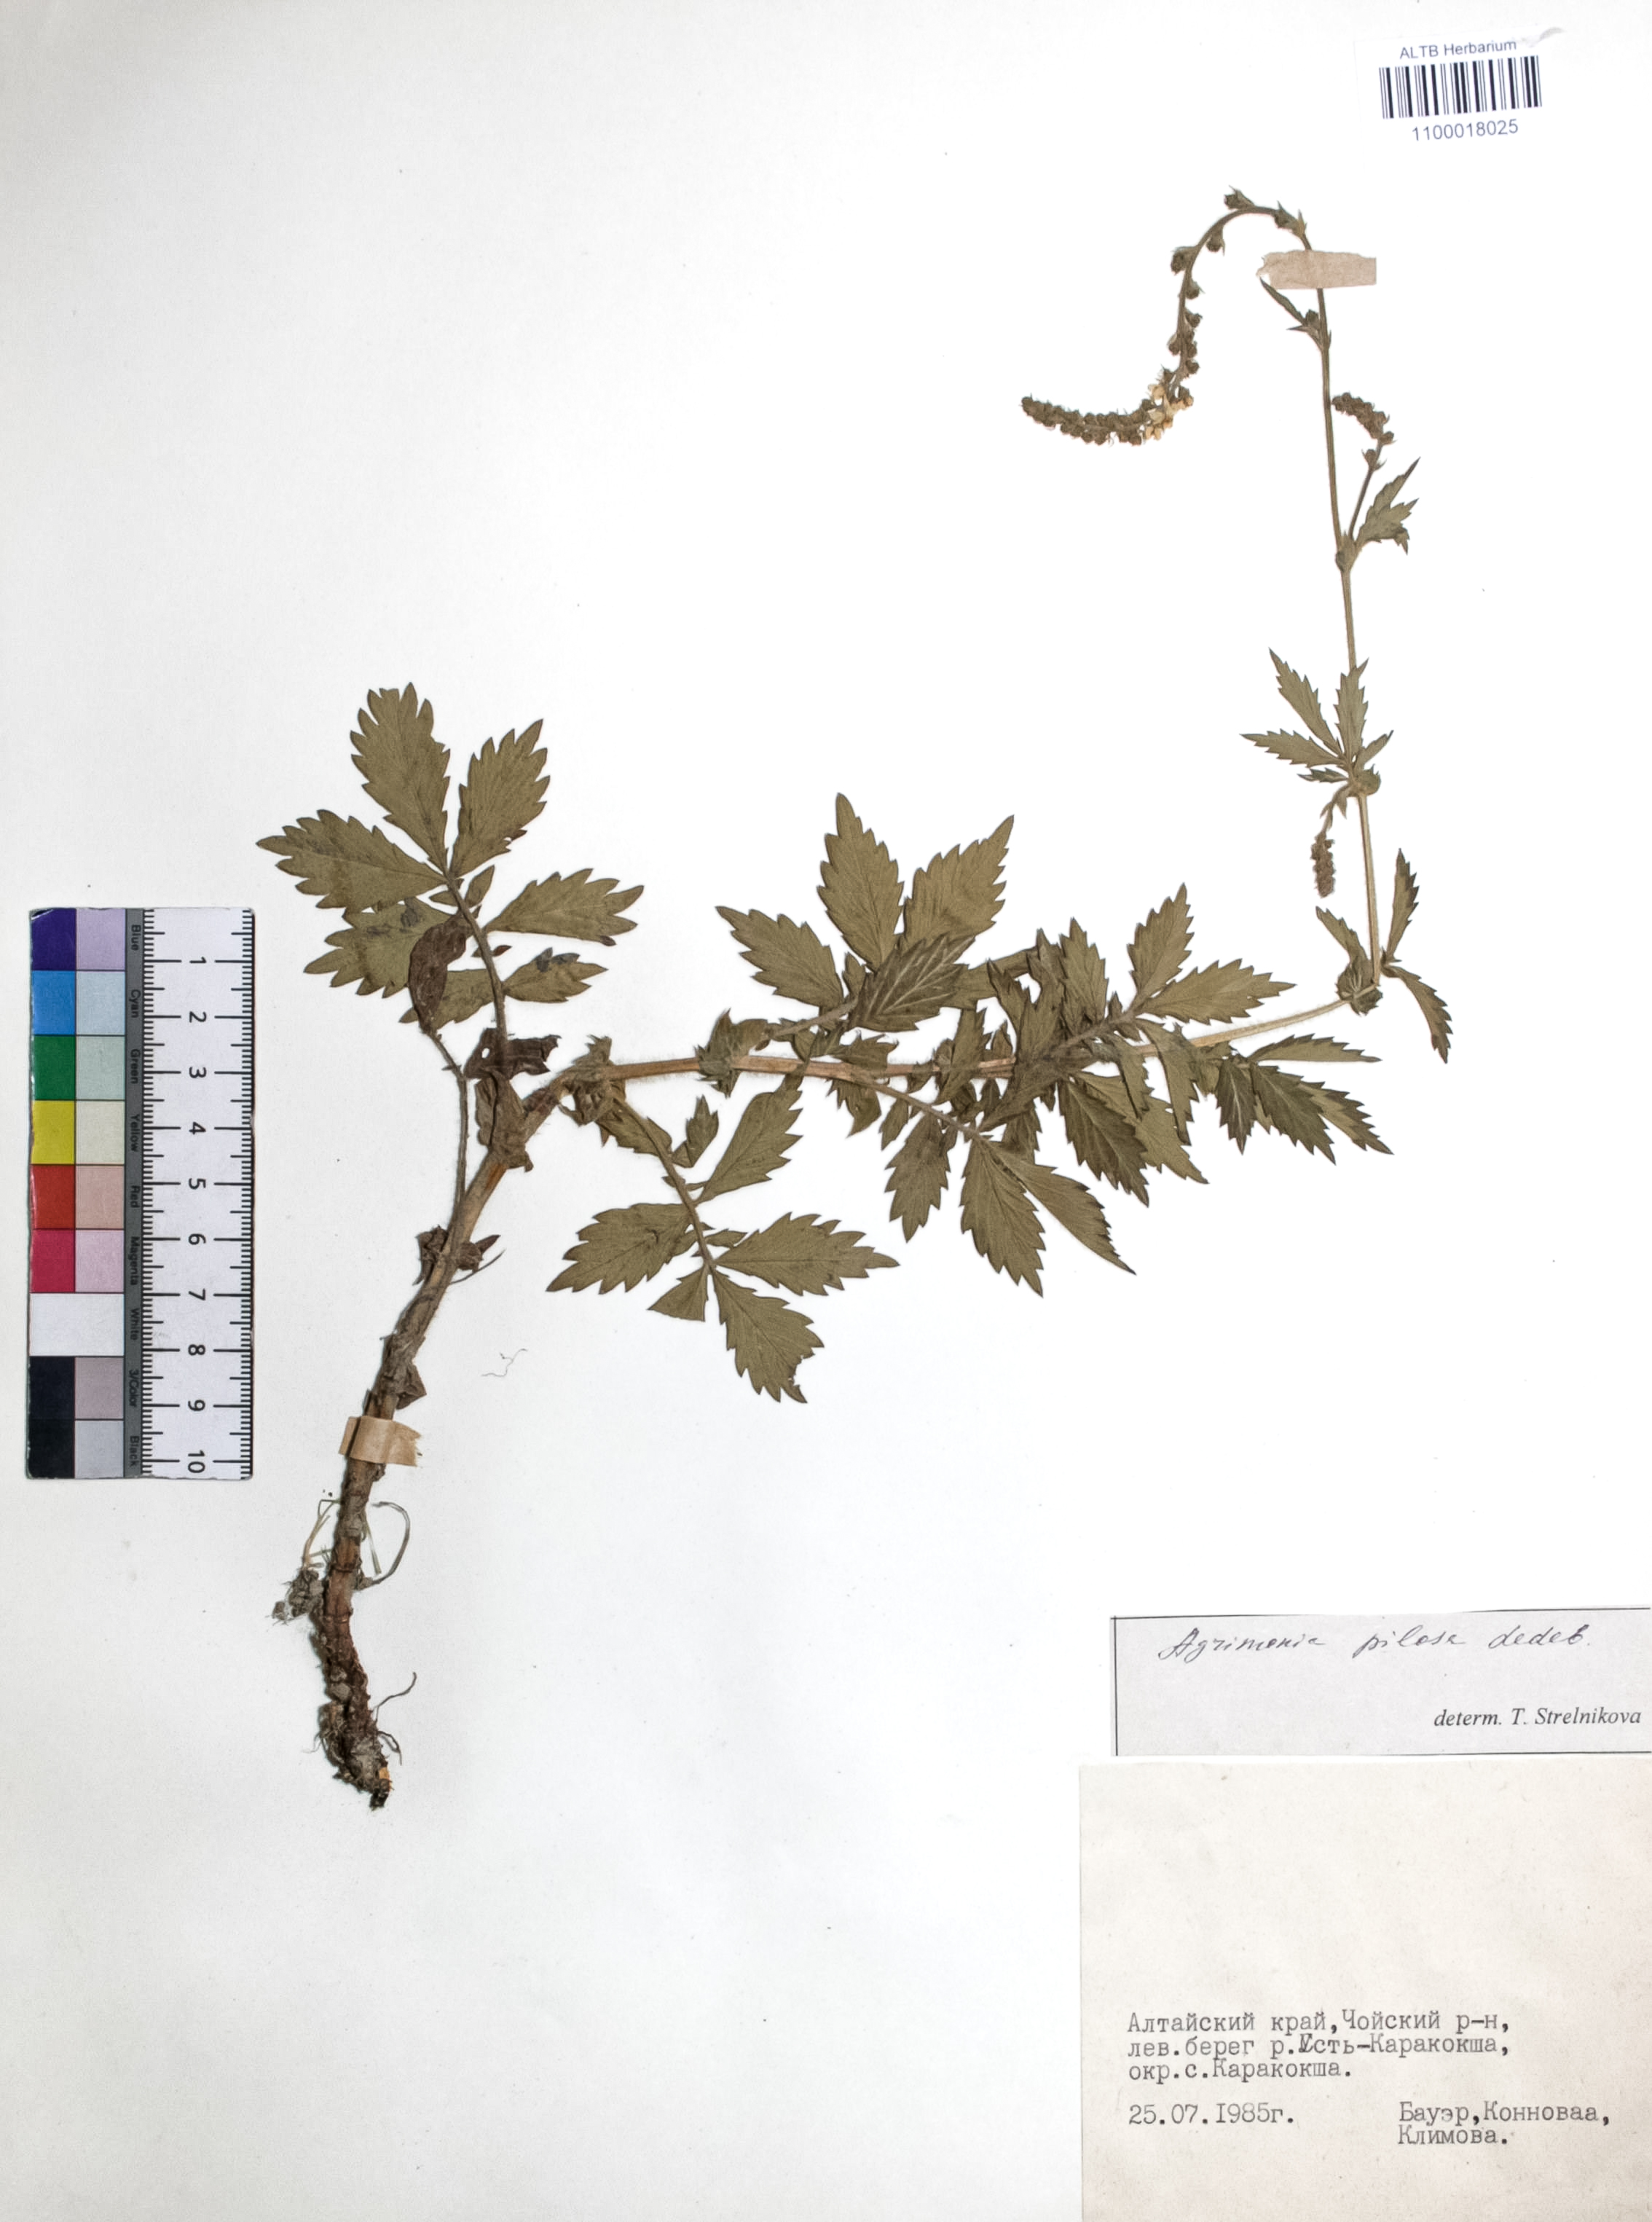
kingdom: Plantae
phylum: Tracheophyta
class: Magnoliopsida
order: Rosales
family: Rosaceae
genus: Agrimonia
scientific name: Agrimonia pilosa
